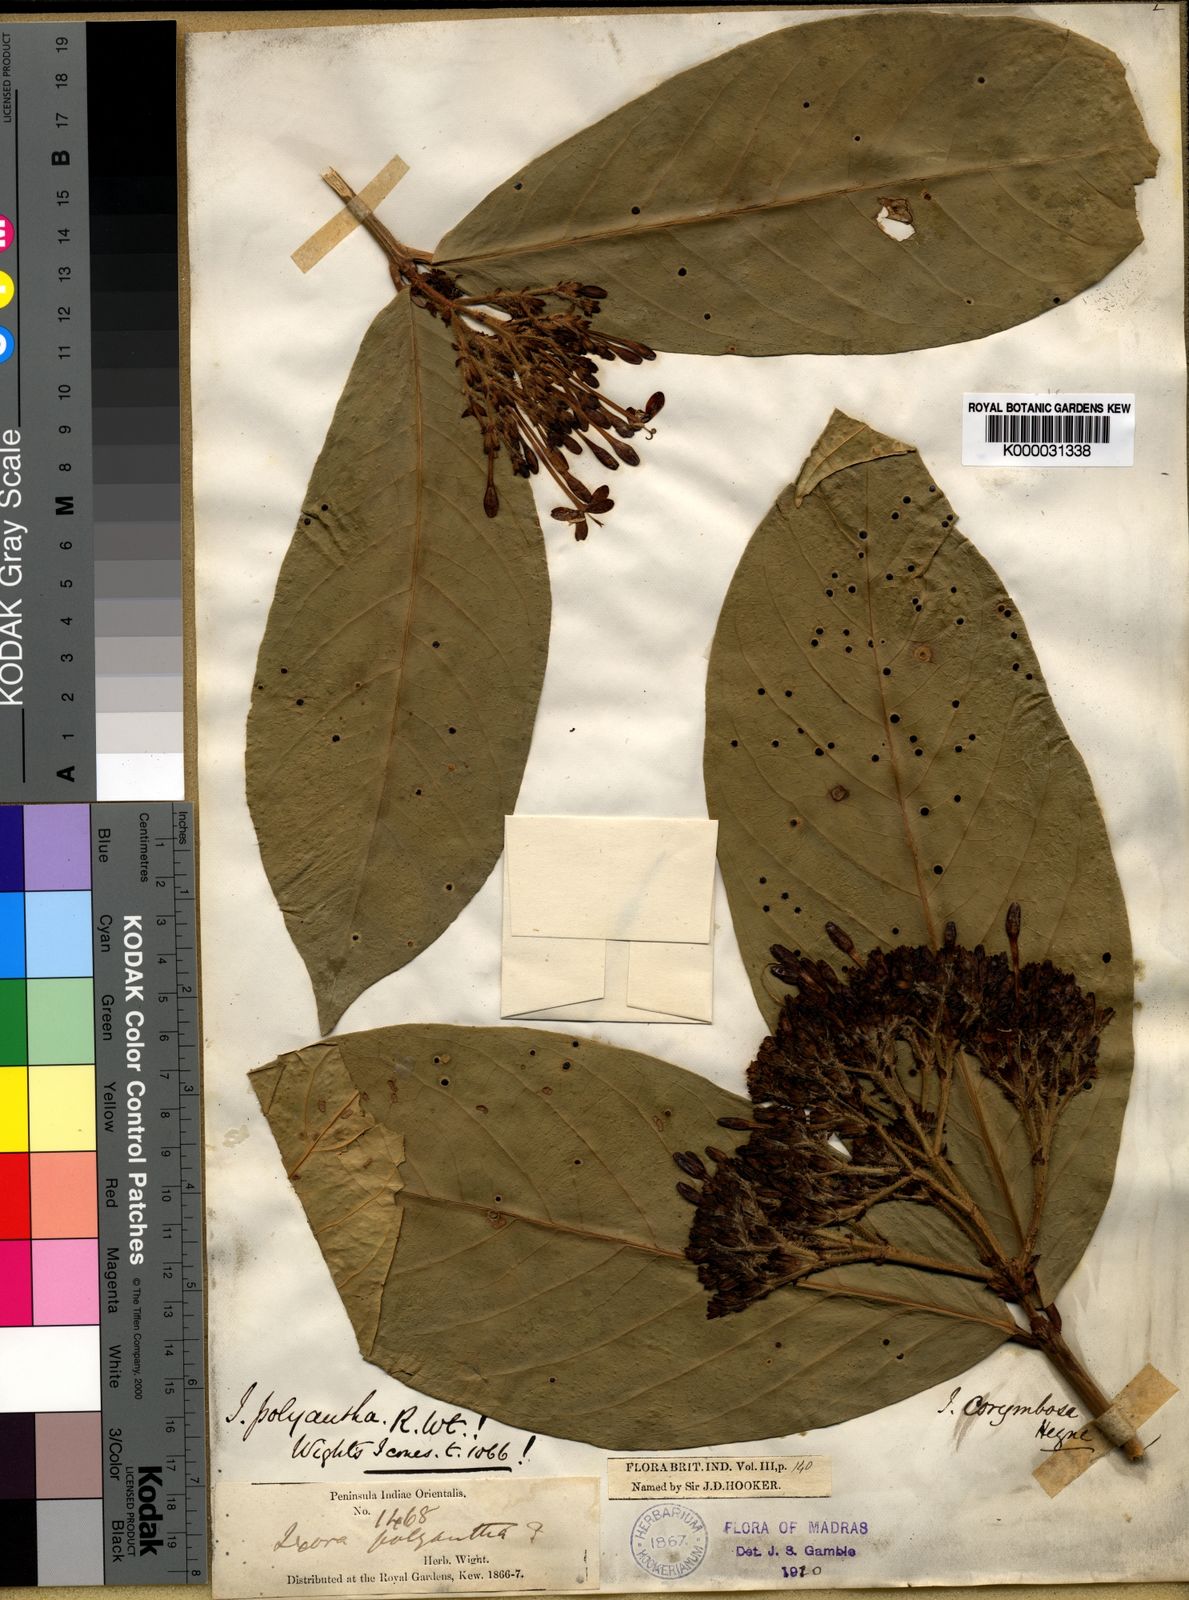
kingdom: Plantae
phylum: Tracheophyta
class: Magnoliopsida
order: Gentianales
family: Rubiaceae
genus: Ixora
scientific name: Ixora polyantha
